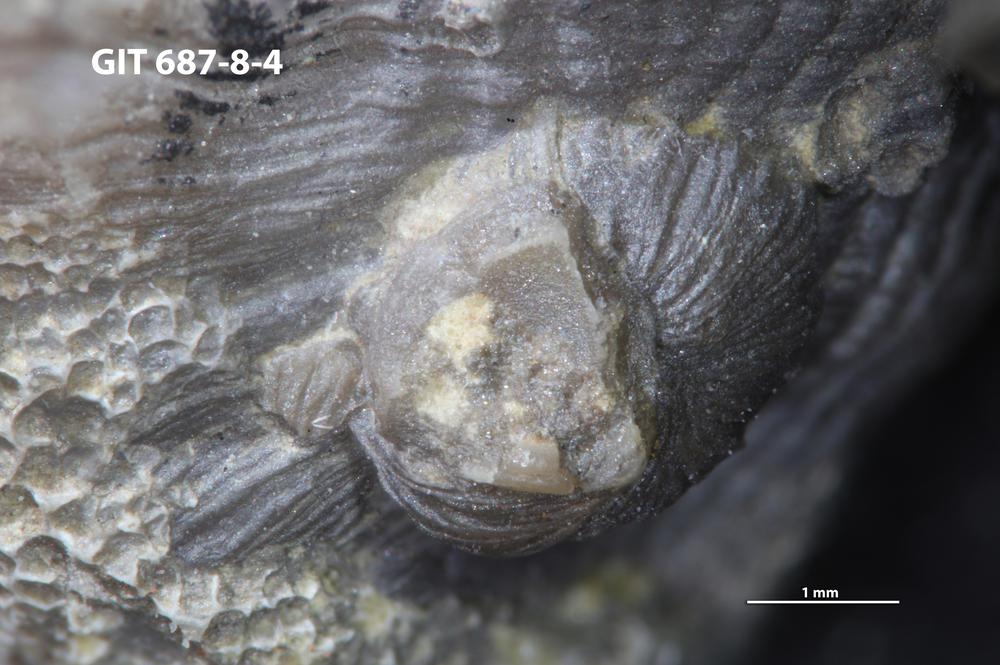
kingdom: Animalia
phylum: Mollusca
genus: Lindstroemiella
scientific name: Lindstroemiella
